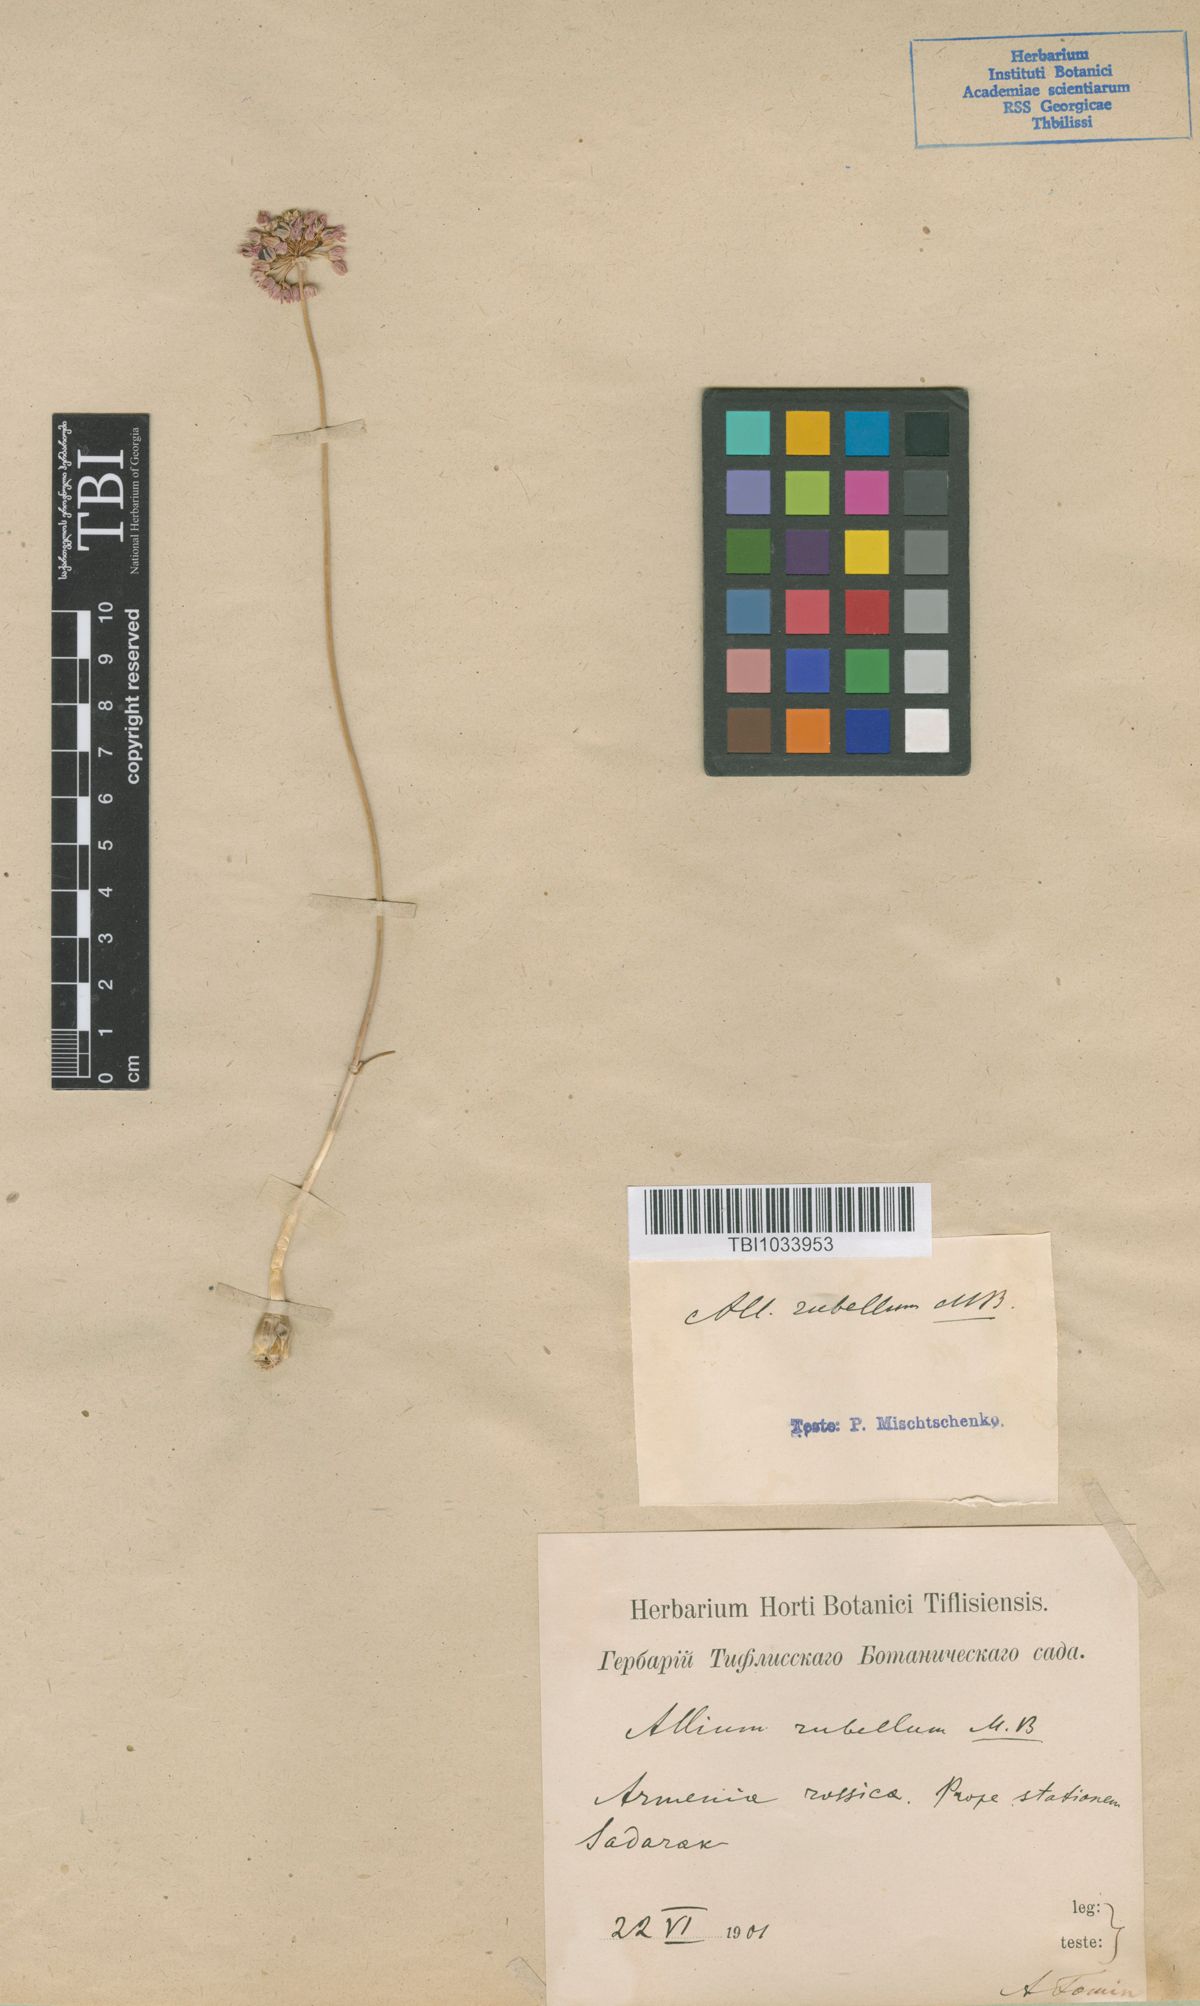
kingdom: Plantae
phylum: Tracheophyta
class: Liliopsida
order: Asparagales
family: Amaryllidaceae
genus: Allium
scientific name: Allium rubellum
